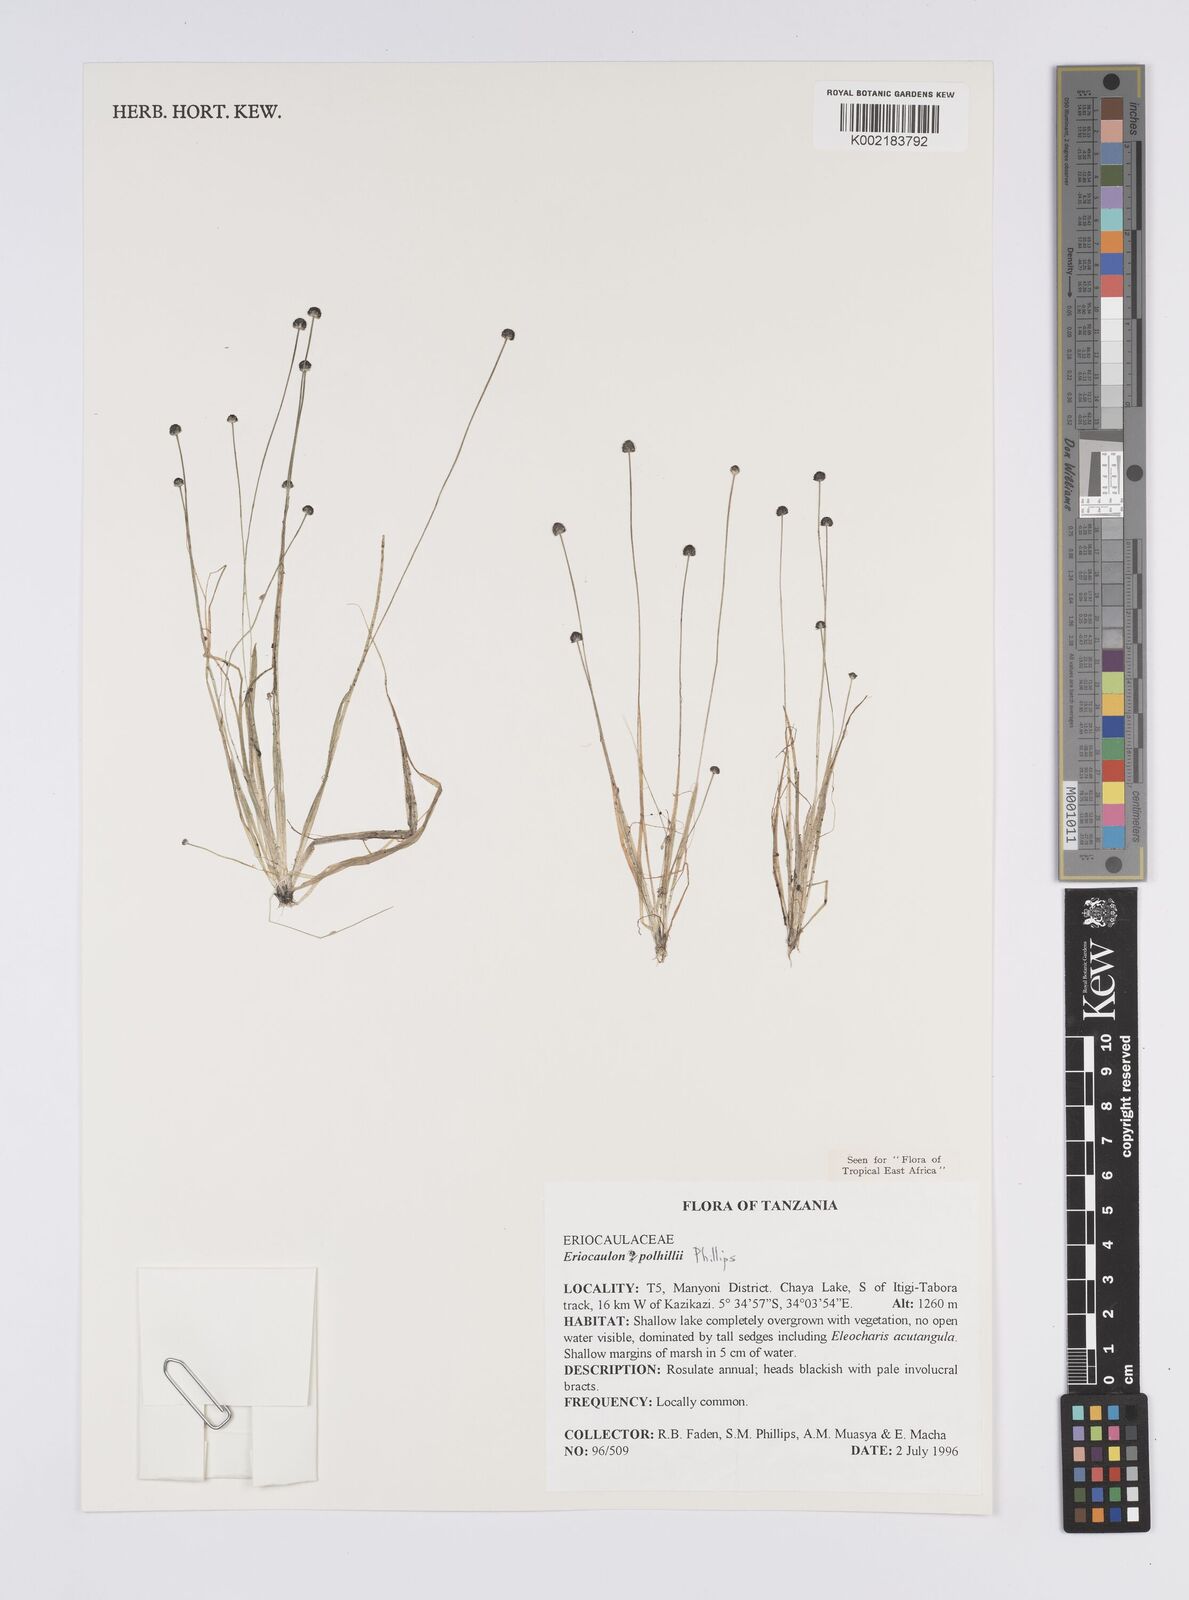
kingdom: Plantae
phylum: Tracheophyta
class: Liliopsida
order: Poales
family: Eriocaulaceae
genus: Eriocaulon
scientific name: Eriocaulon polhillii
